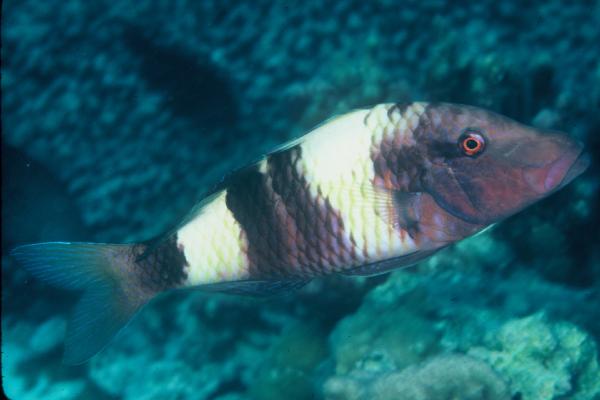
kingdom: Animalia
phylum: Chordata
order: Perciformes
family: Mullidae
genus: Parupeneus
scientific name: Parupeneus multifasciatus
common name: Manybar goatfish
